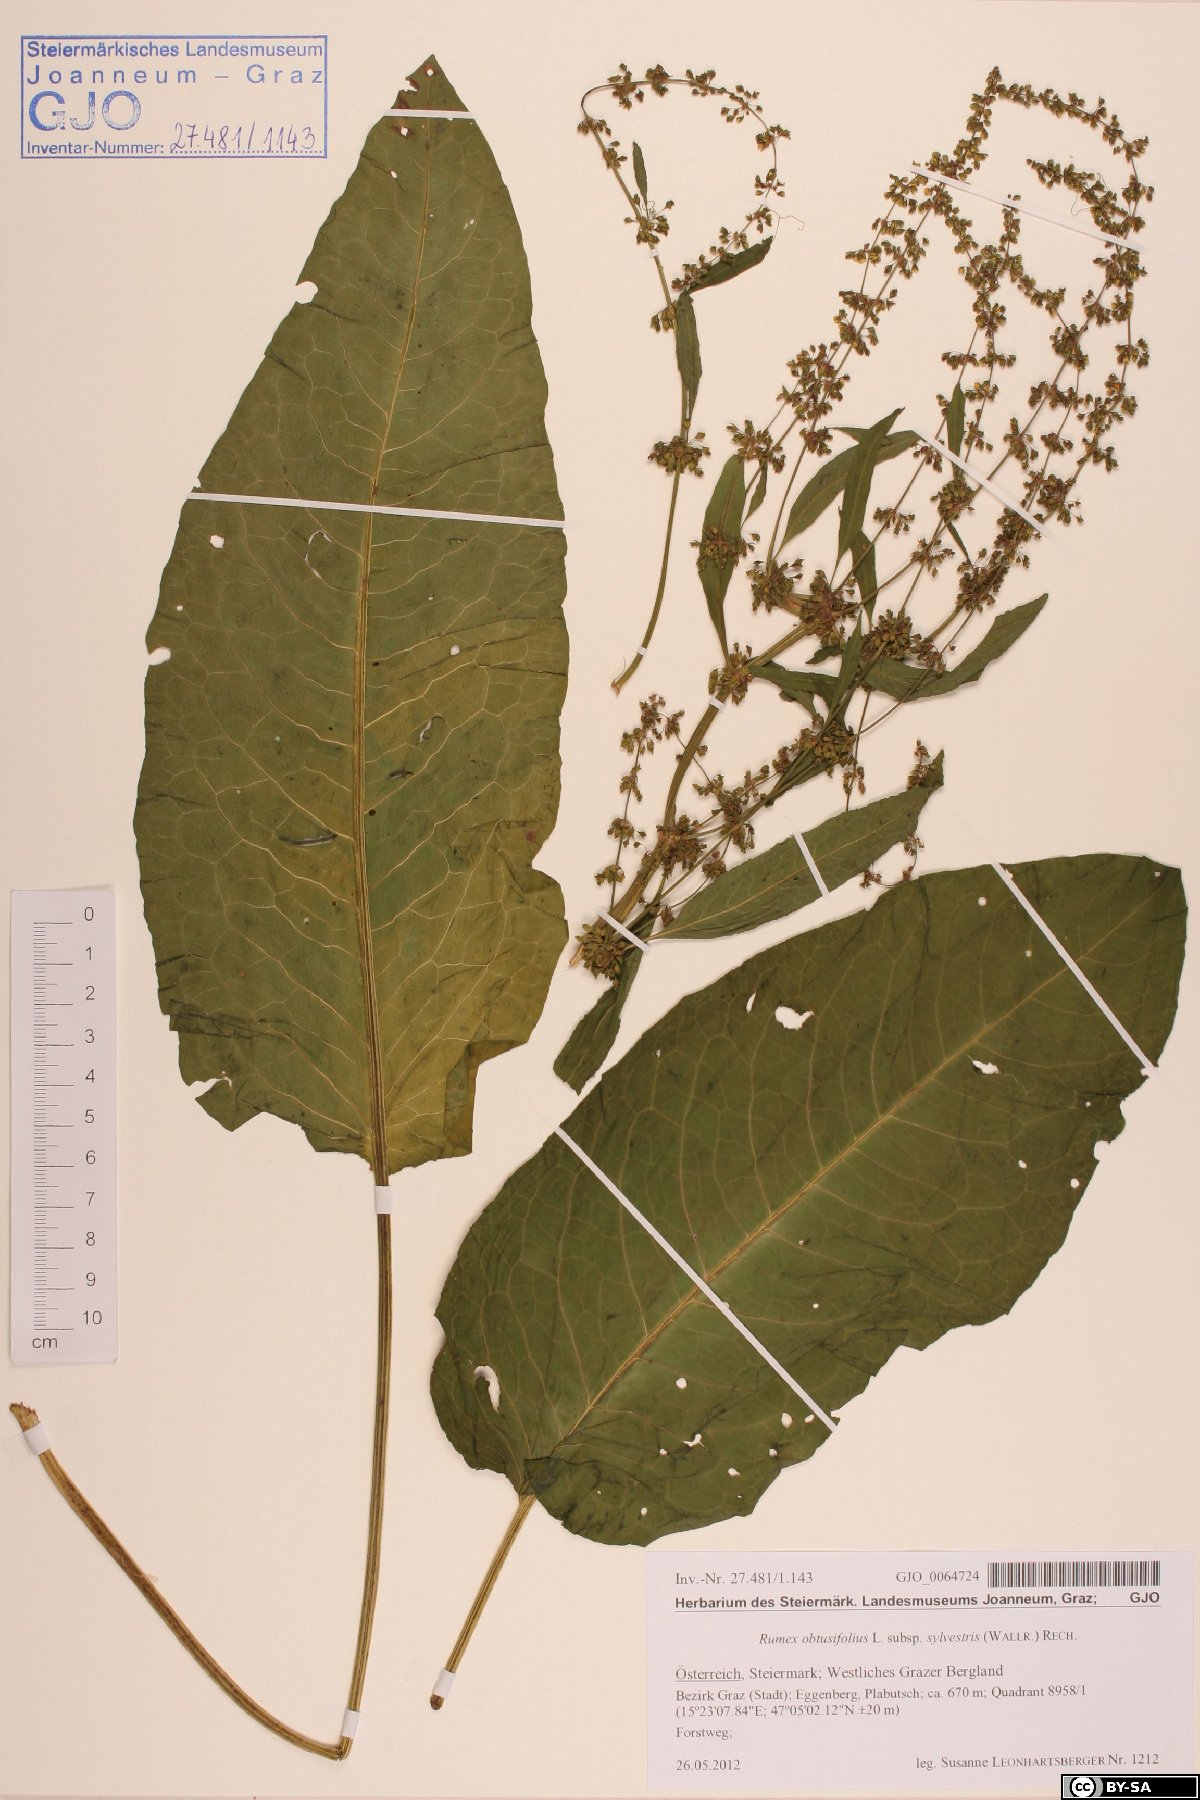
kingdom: Plantae
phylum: Tracheophyta
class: Magnoliopsida
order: Caryophyllales
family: Polygonaceae
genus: Rumex
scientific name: Rumex obtusifolius
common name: Bitter dock
